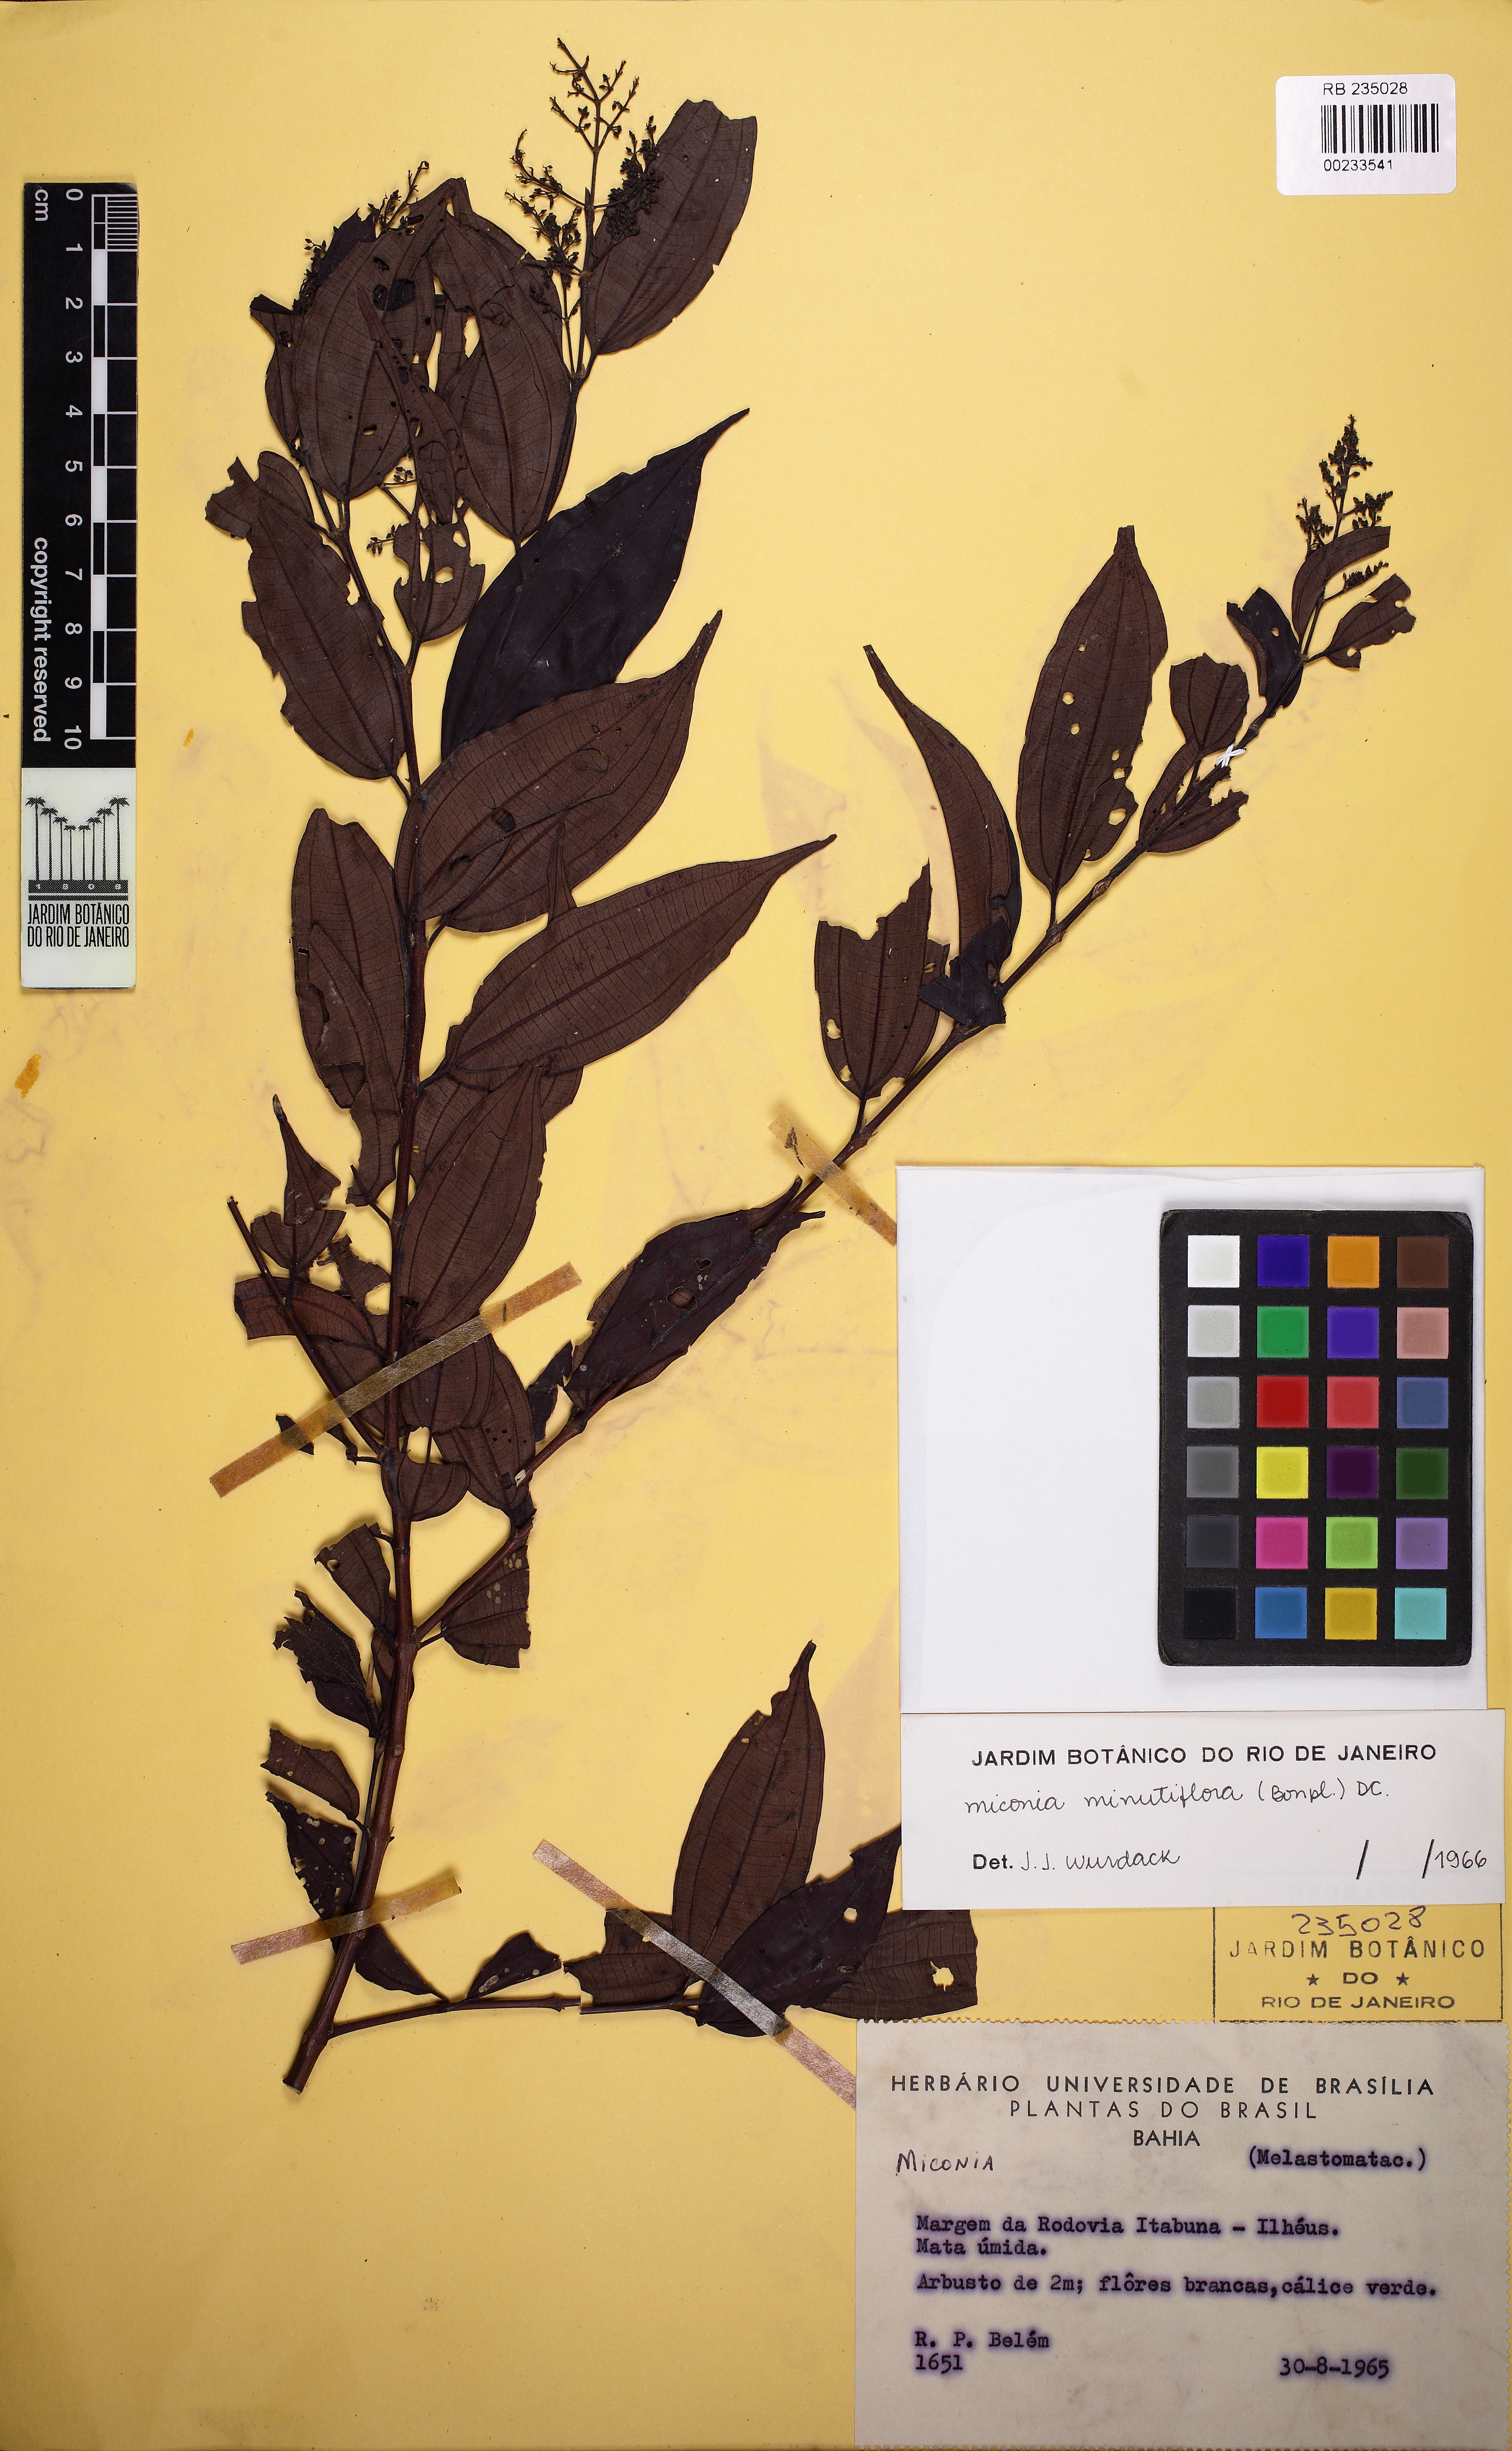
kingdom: Plantae
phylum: Tracheophyta
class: Magnoliopsida
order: Myrtales
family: Melastomataceae
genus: Miconia
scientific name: Miconia minutiflora
